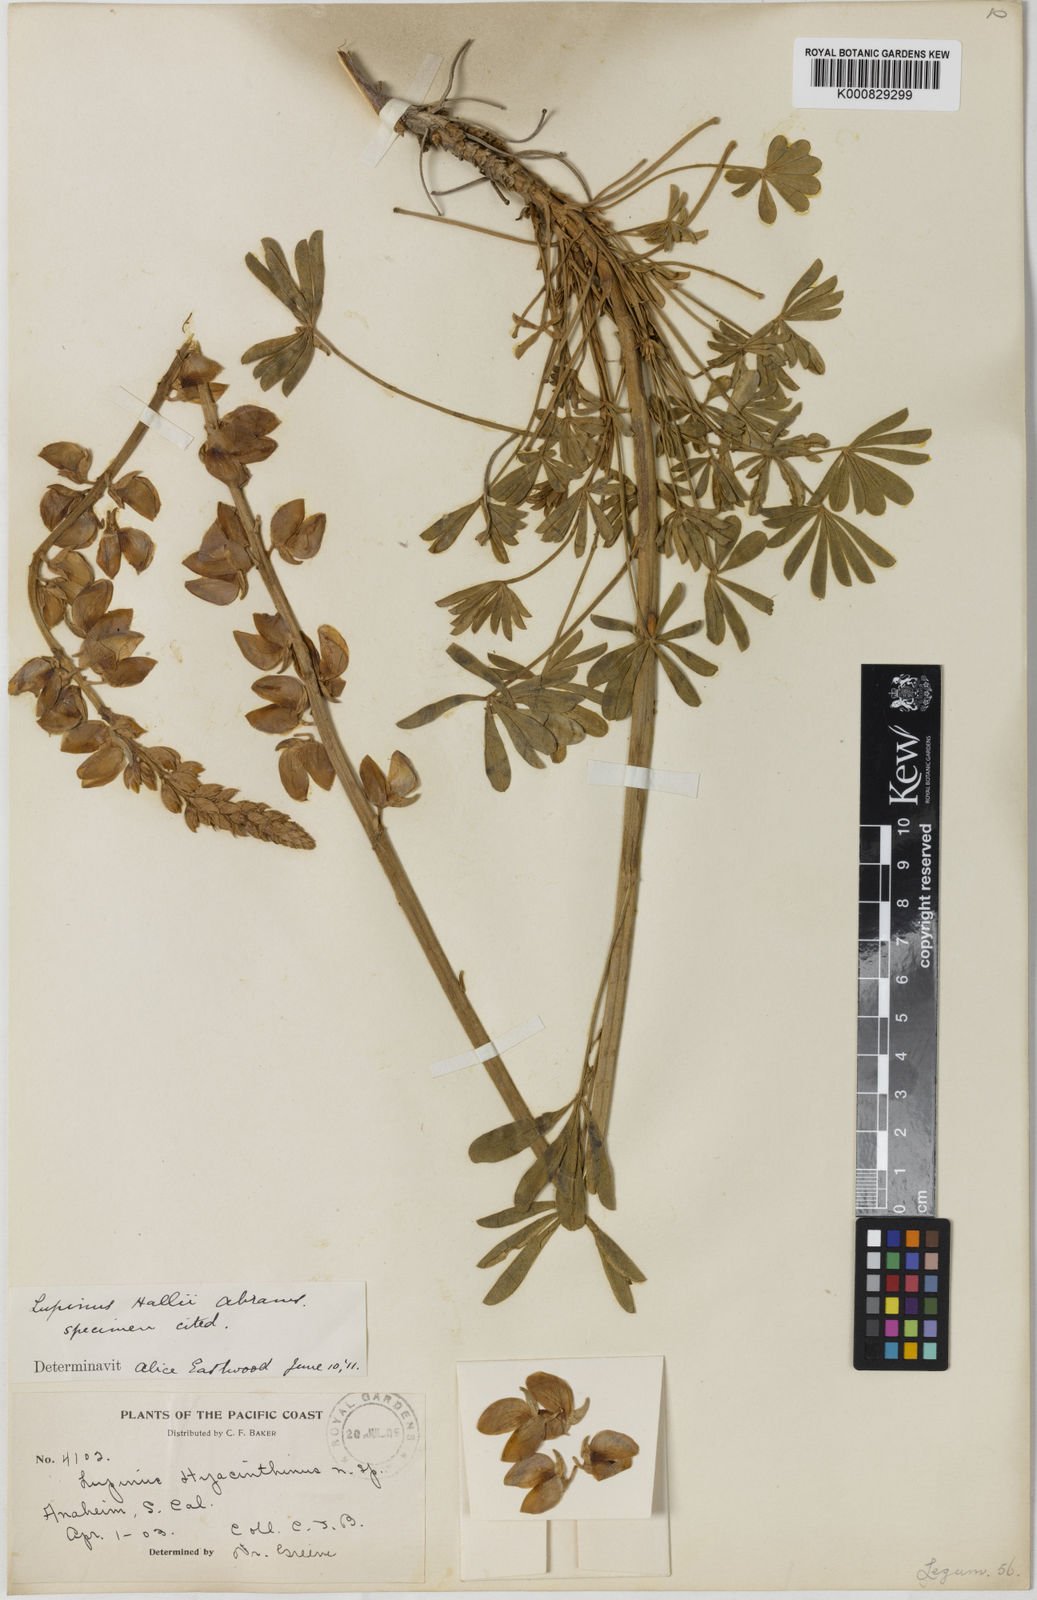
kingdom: Plantae
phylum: Tracheophyta
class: Magnoliopsida
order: Fabales
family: Fabaceae
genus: Lupinus
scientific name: Lupinus excubitus
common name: Grape soda lupine
